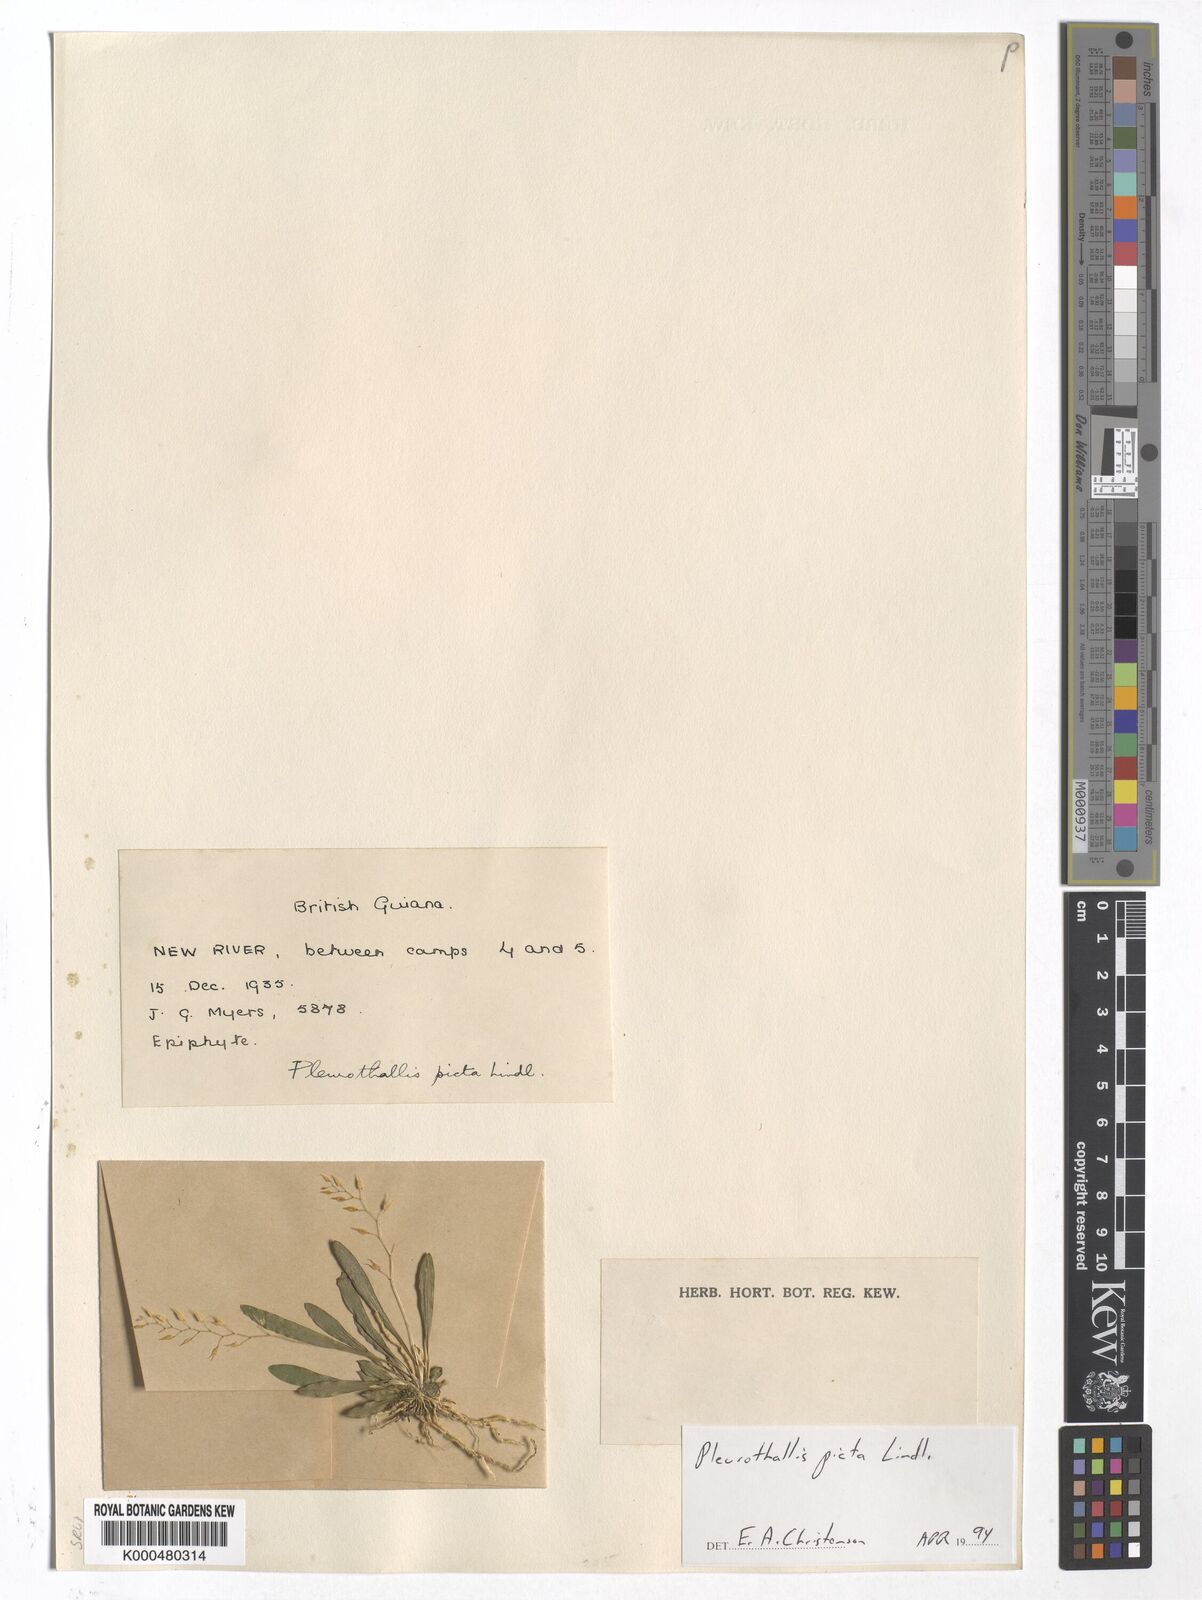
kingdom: Plantae
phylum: Tracheophyta
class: Liliopsida
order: Asparagales
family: Orchidaceae
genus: Specklinia
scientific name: Specklinia picta
